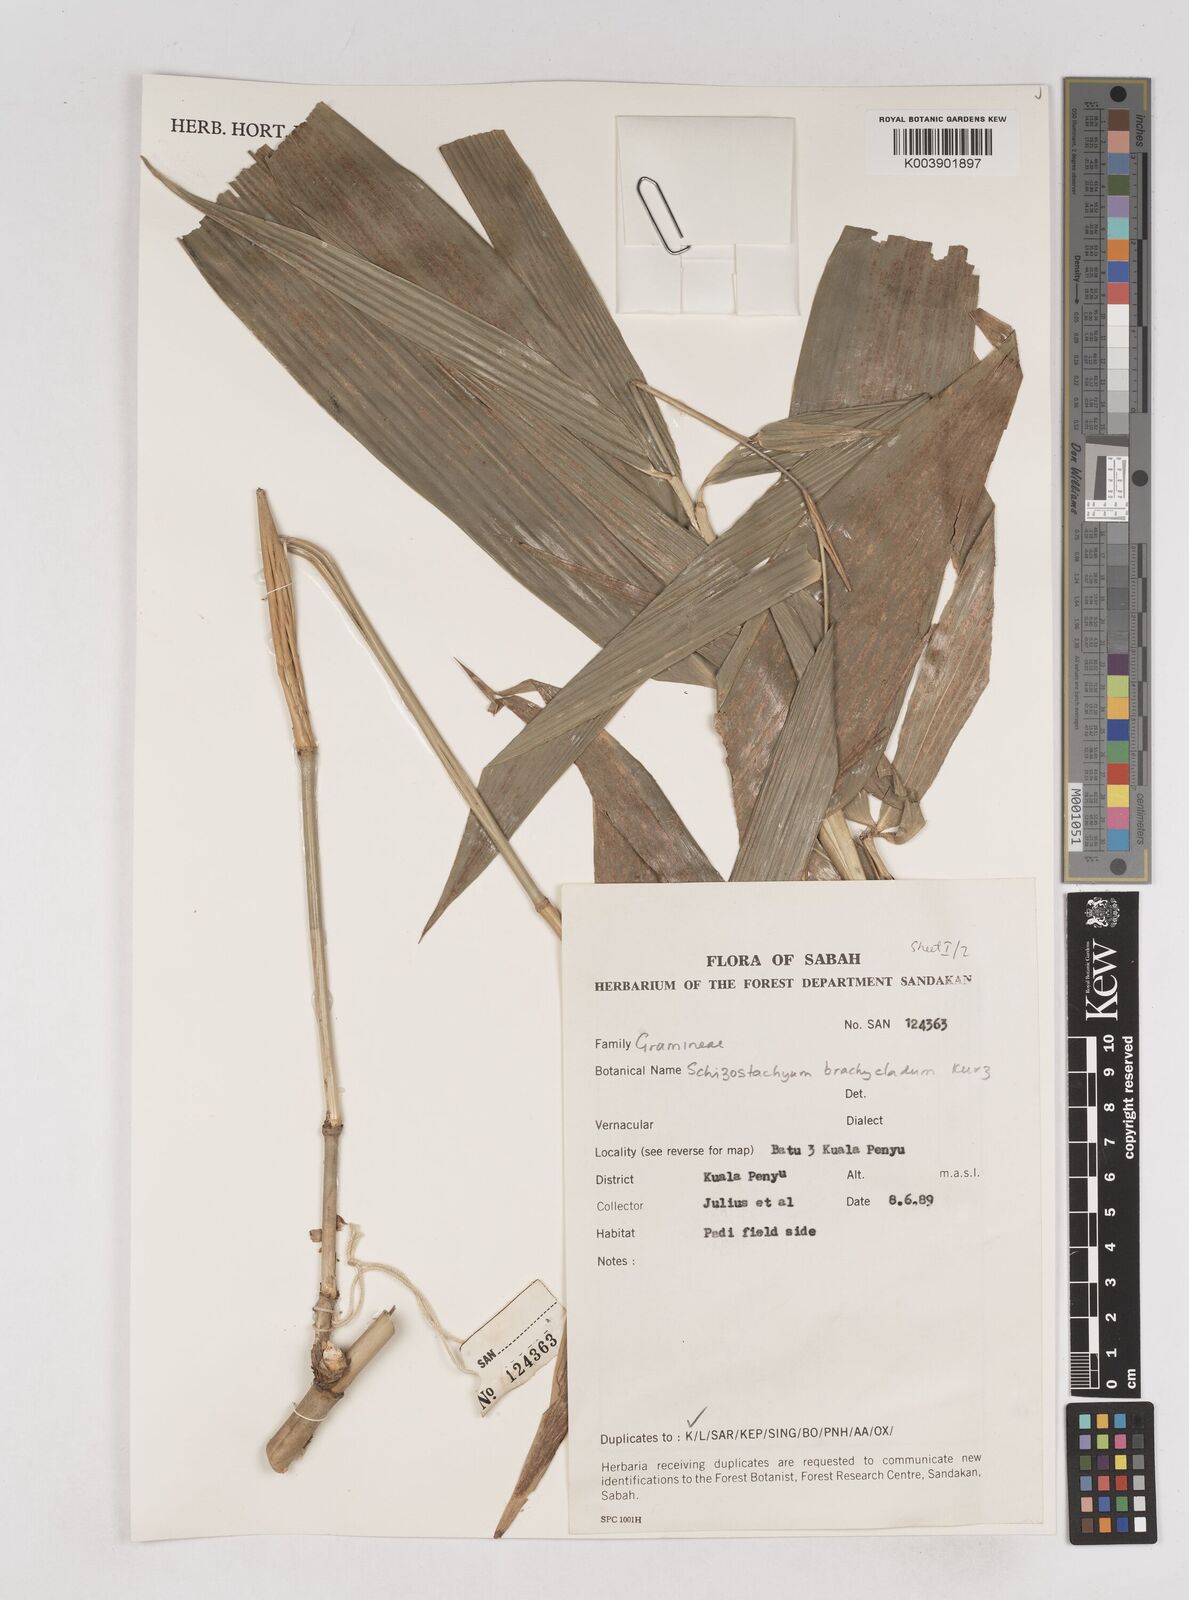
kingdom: Plantae
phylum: Tracheophyta
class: Liliopsida
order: Poales
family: Poaceae
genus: Schizostachyum
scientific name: Schizostachyum brachycladum
